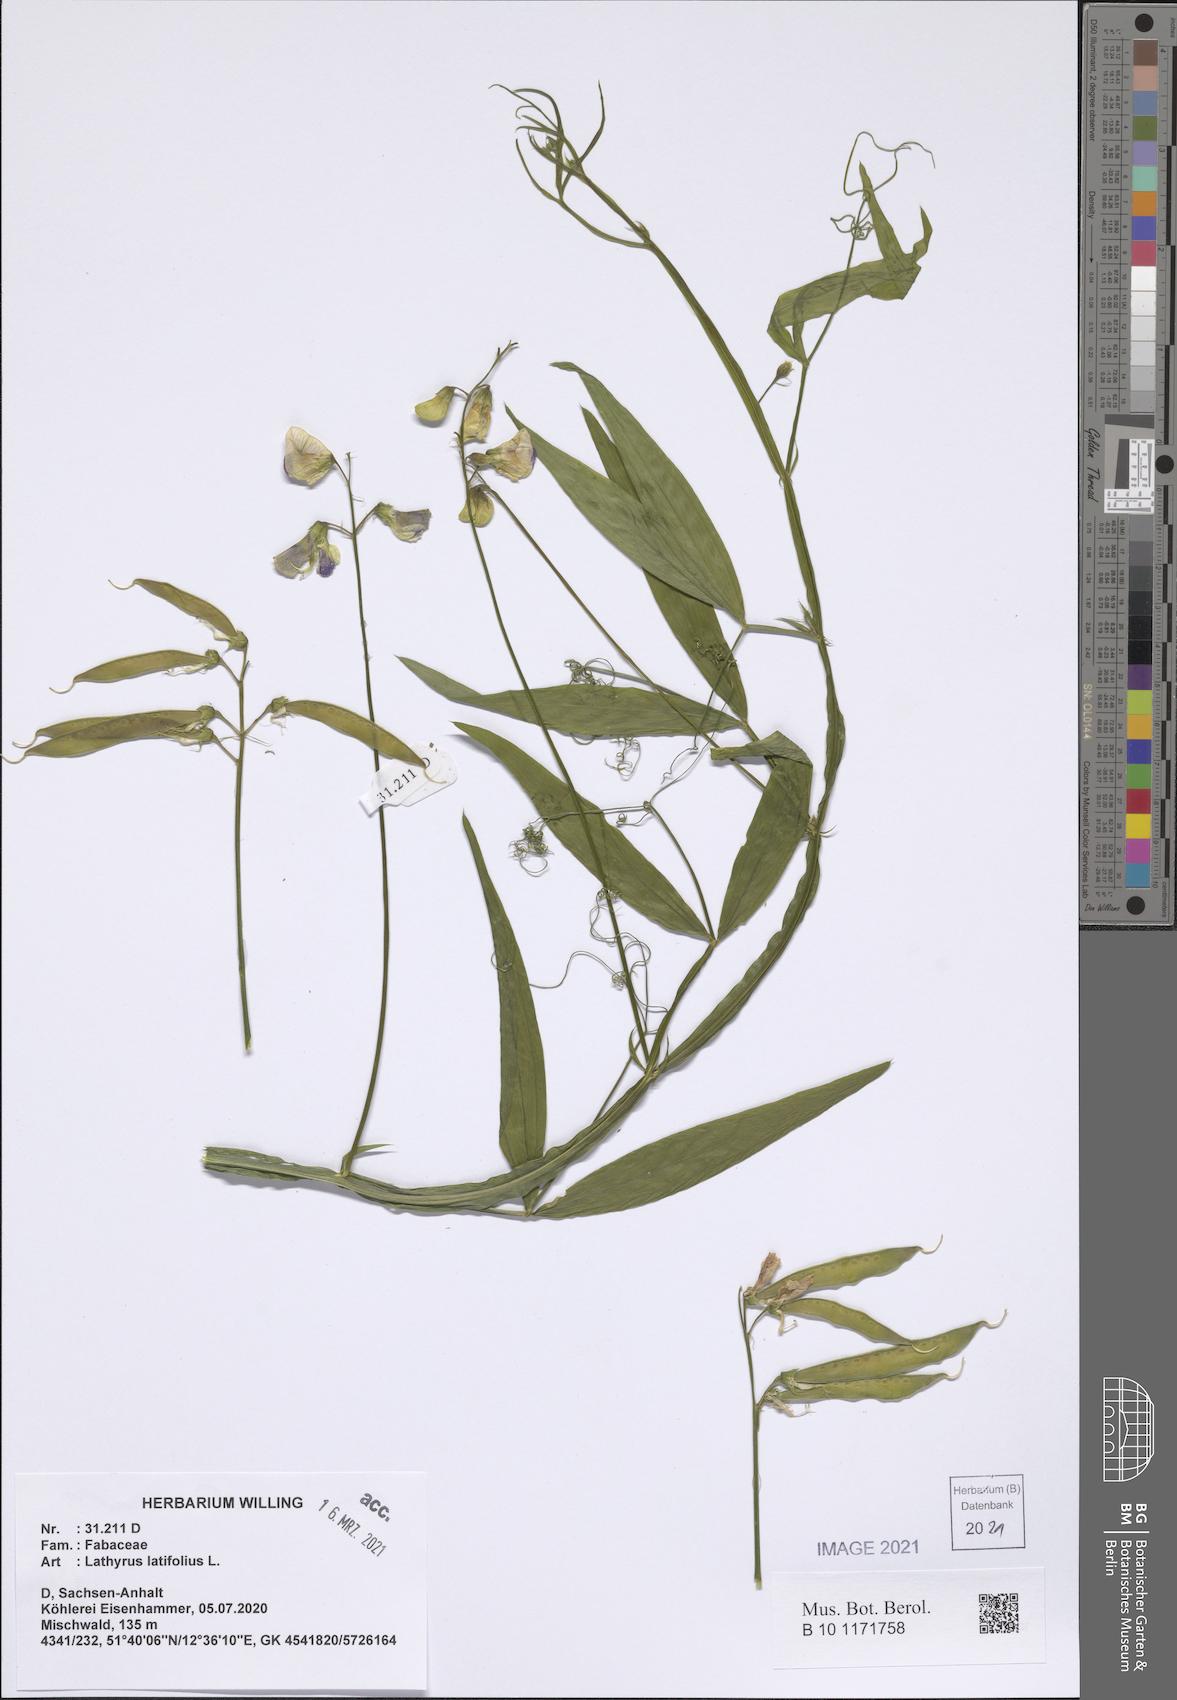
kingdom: Plantae
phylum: Tracheophyta
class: Magnoliopsida
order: Fabales
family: Fabaceae
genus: Lathyrus
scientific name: Lathyrus latifolius
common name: Perennial pea
